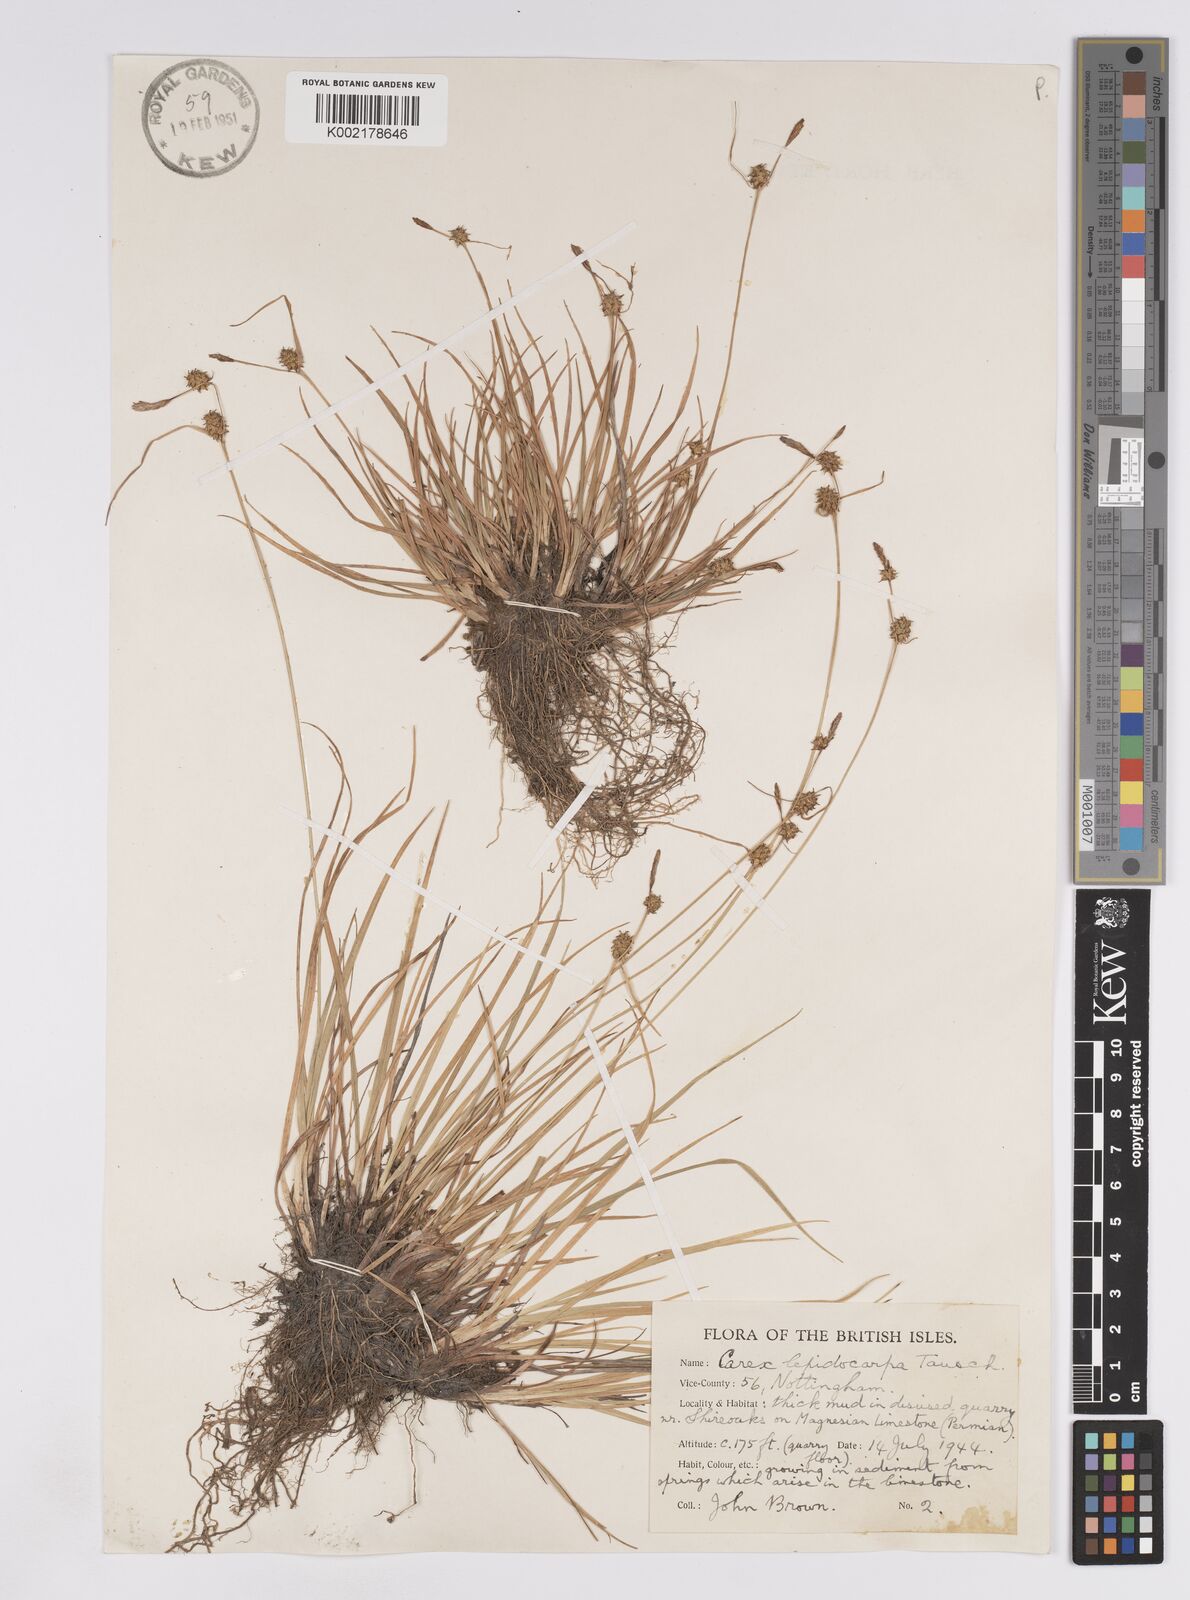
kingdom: Plantae
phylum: Tracheophyta
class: Liliopsida
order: Poales
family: Cyperaceae
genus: Carex
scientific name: Carex lepidocarpa
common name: Long-stalked yellow-sedge
